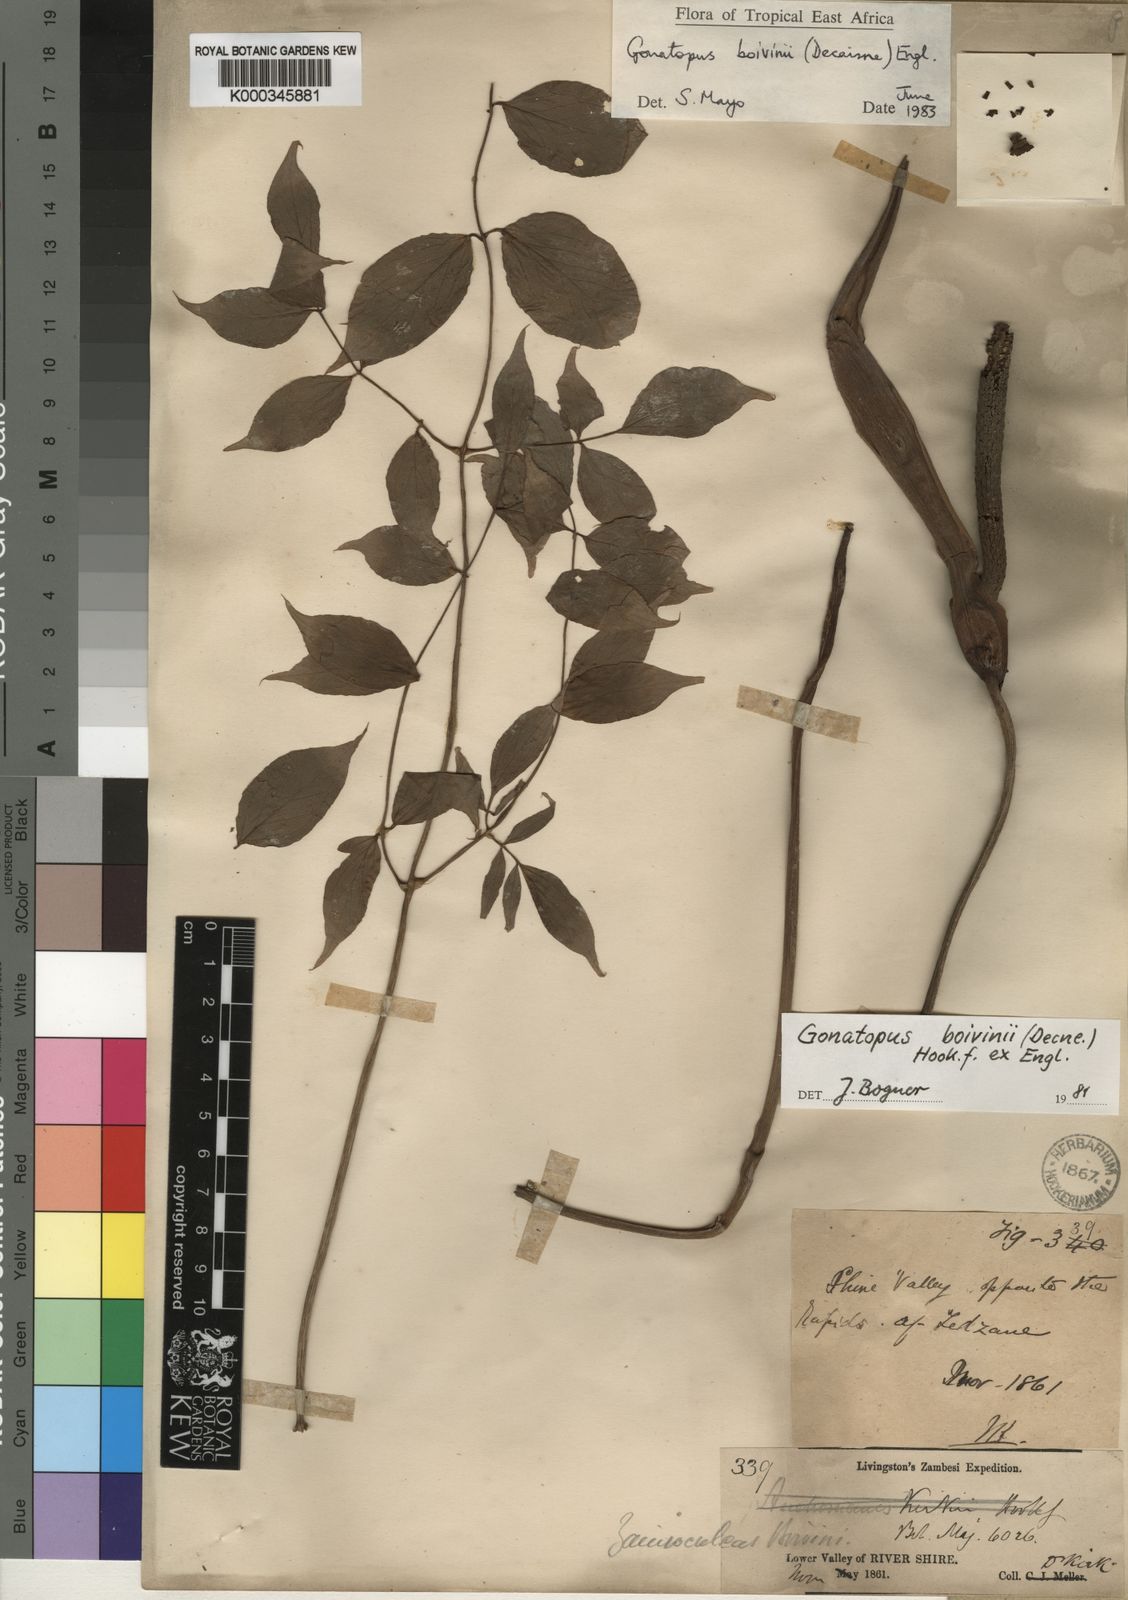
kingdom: Plantae
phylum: Tracheophyta
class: Liliopsida
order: Alismatales
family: Araceae
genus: Gonatopus
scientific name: Gonatopus boivinii
